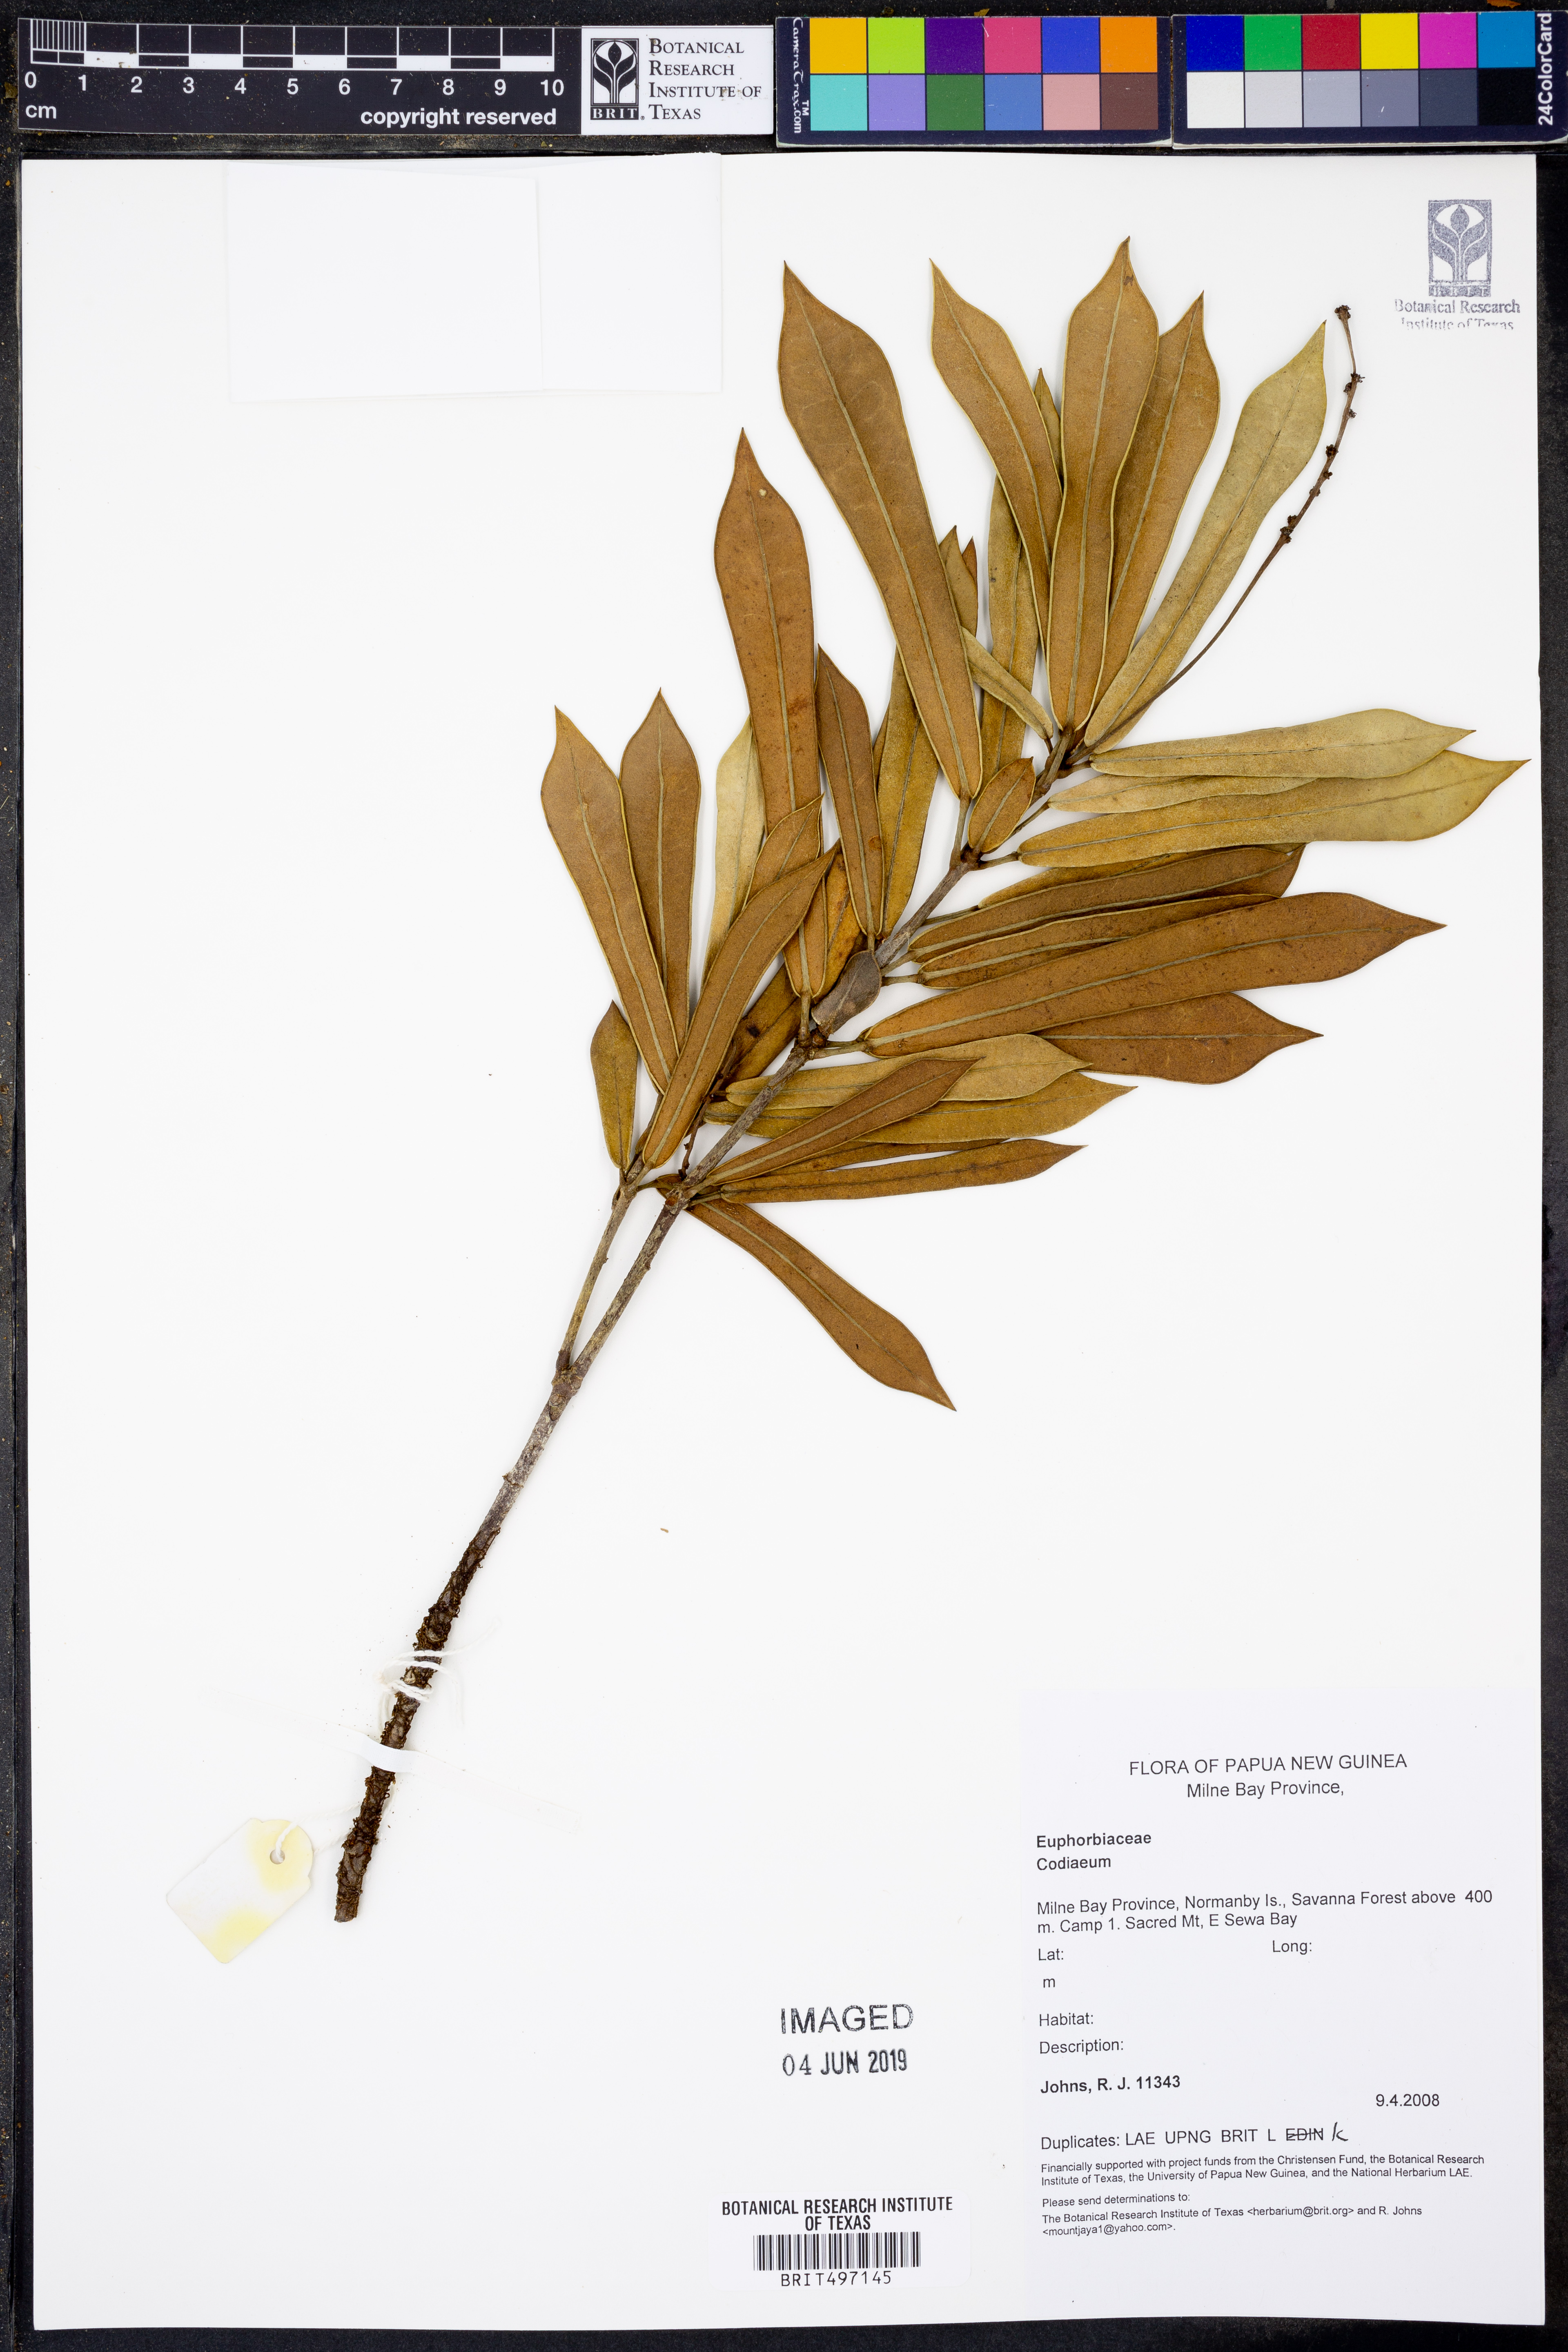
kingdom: Plantae
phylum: Tracheophyta
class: Magnoliopsida
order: Malpighiales
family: Euphorbiaceae
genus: Codiaeum
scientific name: Codiaeum
